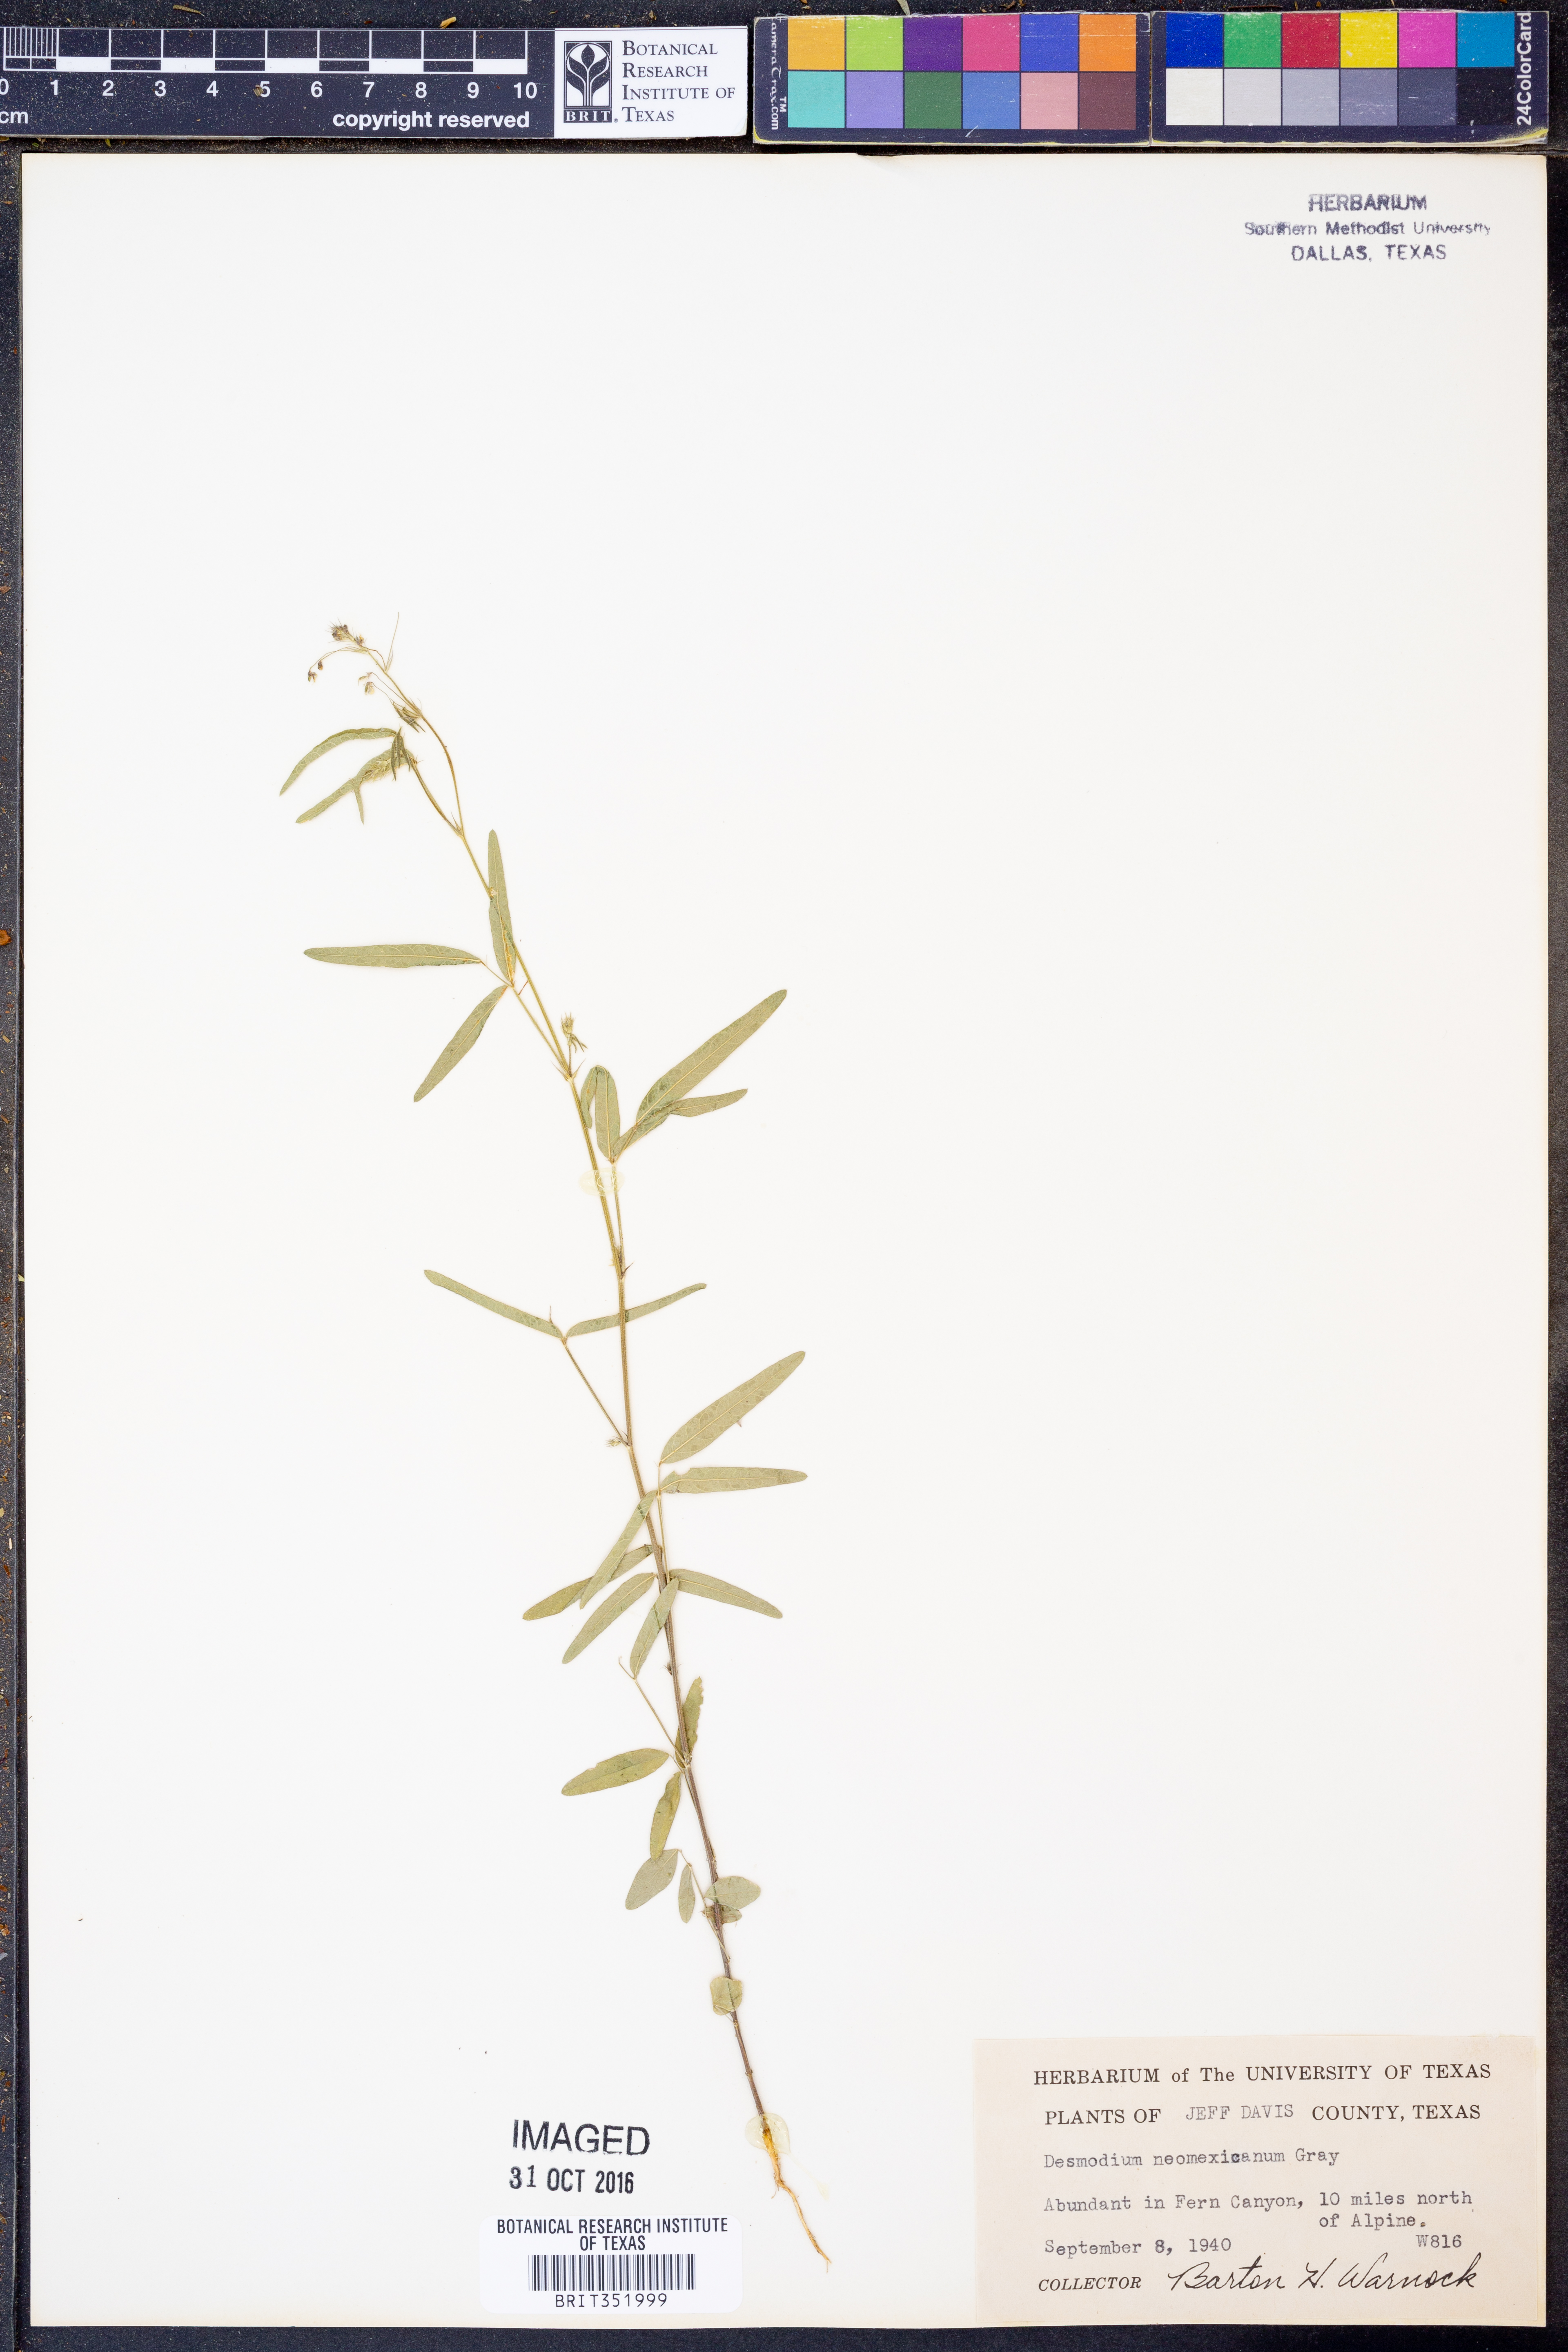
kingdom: Plantae
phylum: Tracheophyta
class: Magnoliopsida
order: Fabales
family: Fabaceae
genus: Desmodium
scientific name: Desmodium procumbens
